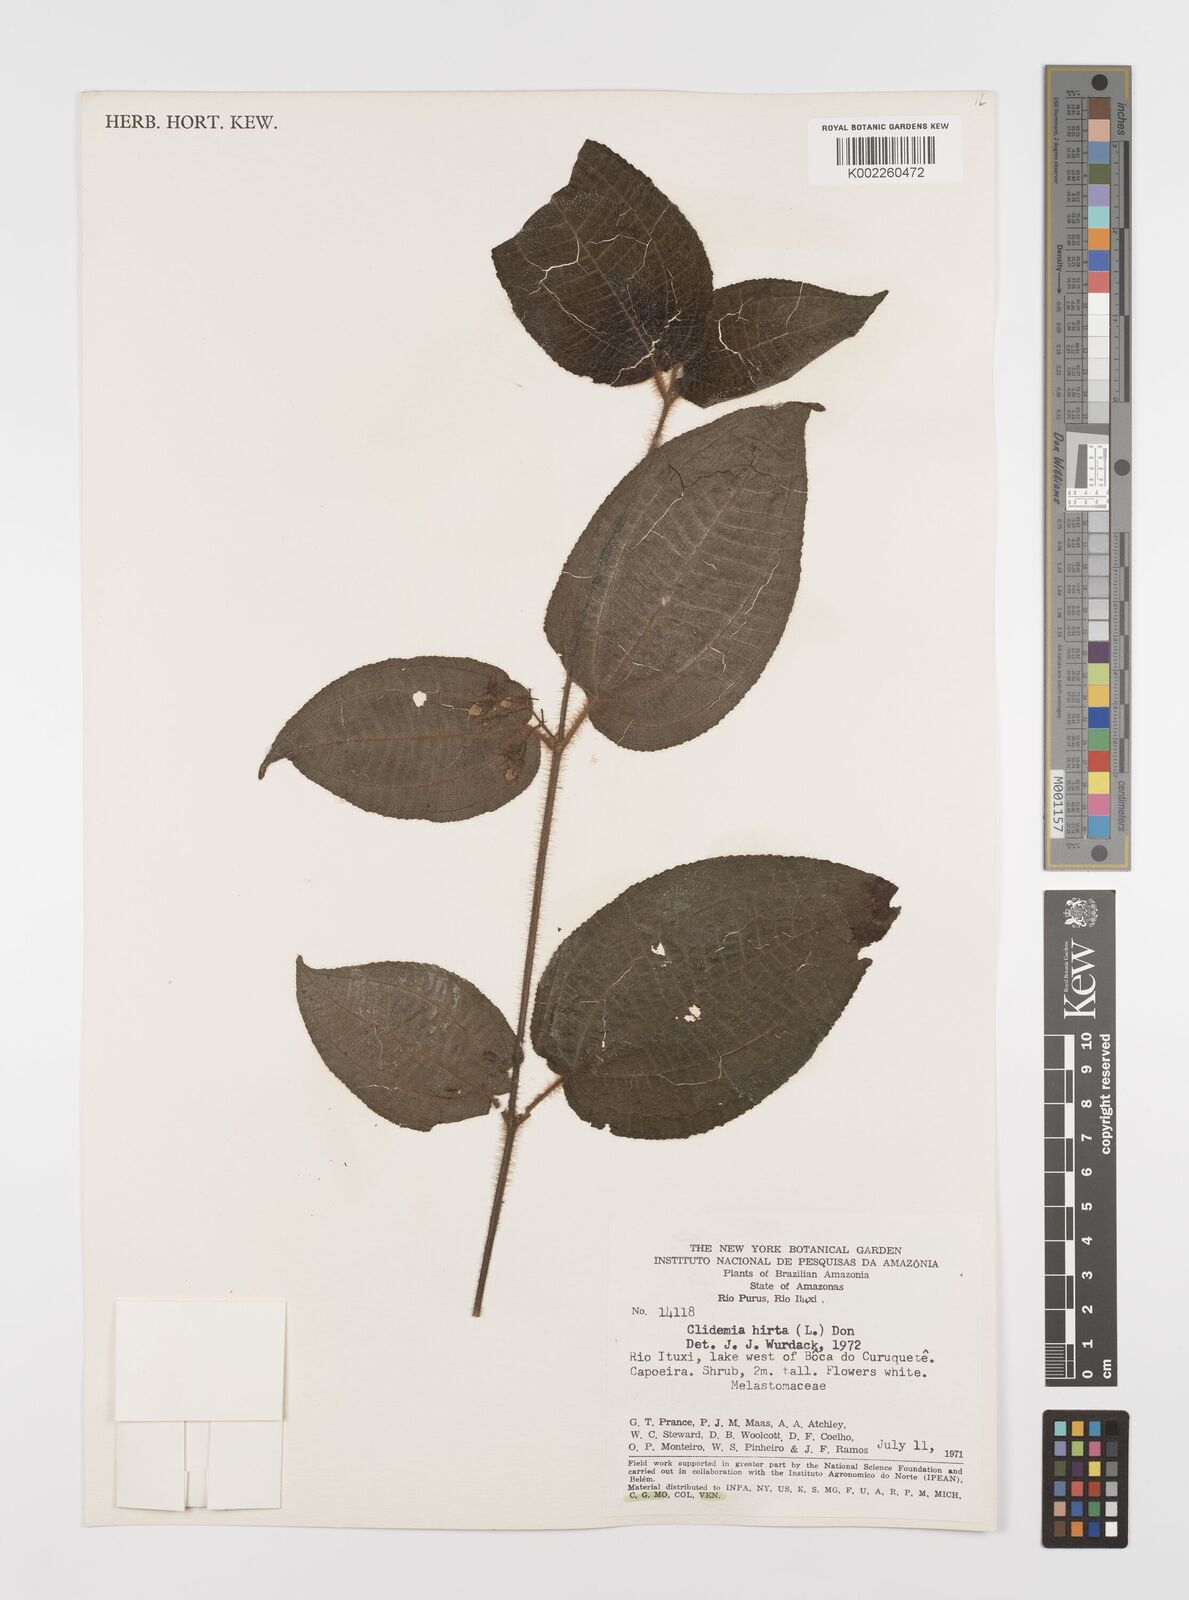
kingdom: Plantae
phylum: Tracheophyta
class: Magnoliopsida
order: Myrtales
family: Melastomataceae
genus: Miconia
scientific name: Miconia crenata
